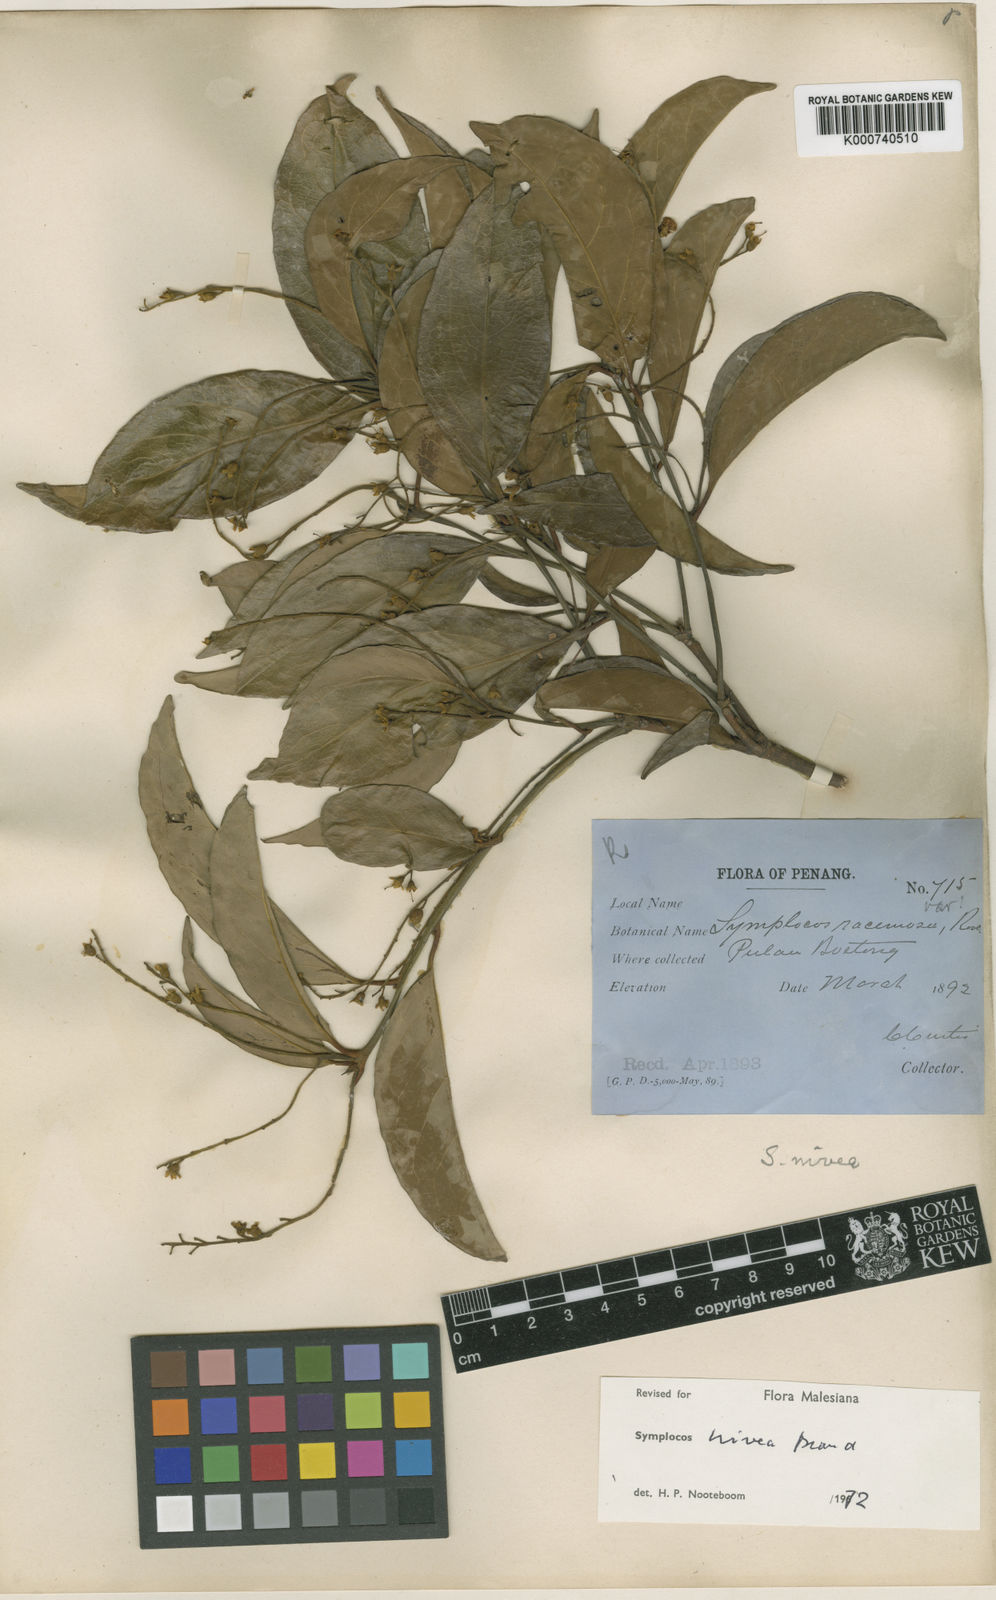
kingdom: Plantae
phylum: Tracheophyta
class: Magnoliopsida
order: Ericales
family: Symplocaceae
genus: Symplocos
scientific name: Symplocos nivea
